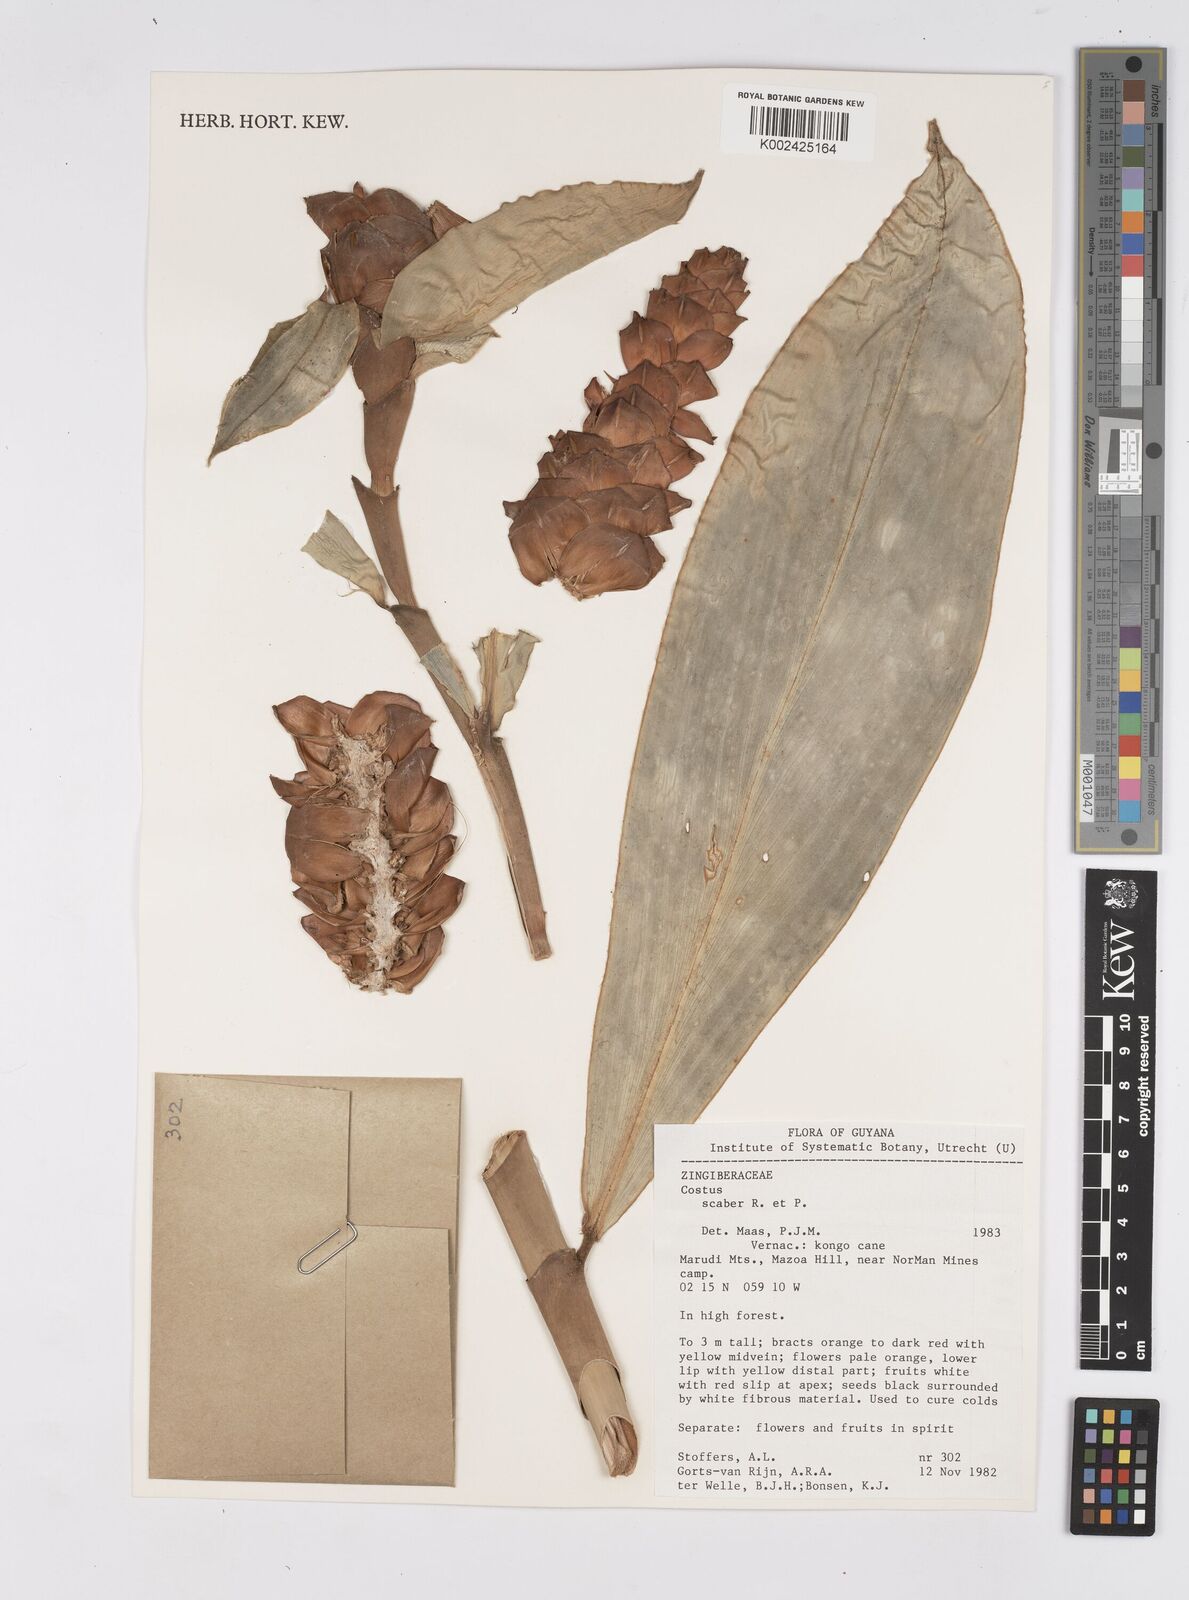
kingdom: Plantae
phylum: Tracheophyta
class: Liliopsida
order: Zingiberales
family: Costaceae
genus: Costus
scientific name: Costus scaber
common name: Spiral head ginger
